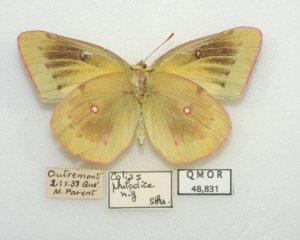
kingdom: Animalia
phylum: Arthropoda
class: Insecta
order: Lepidoptera
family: Pieridae
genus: Colias
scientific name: Colias philodice
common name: Clouded Sulphur
